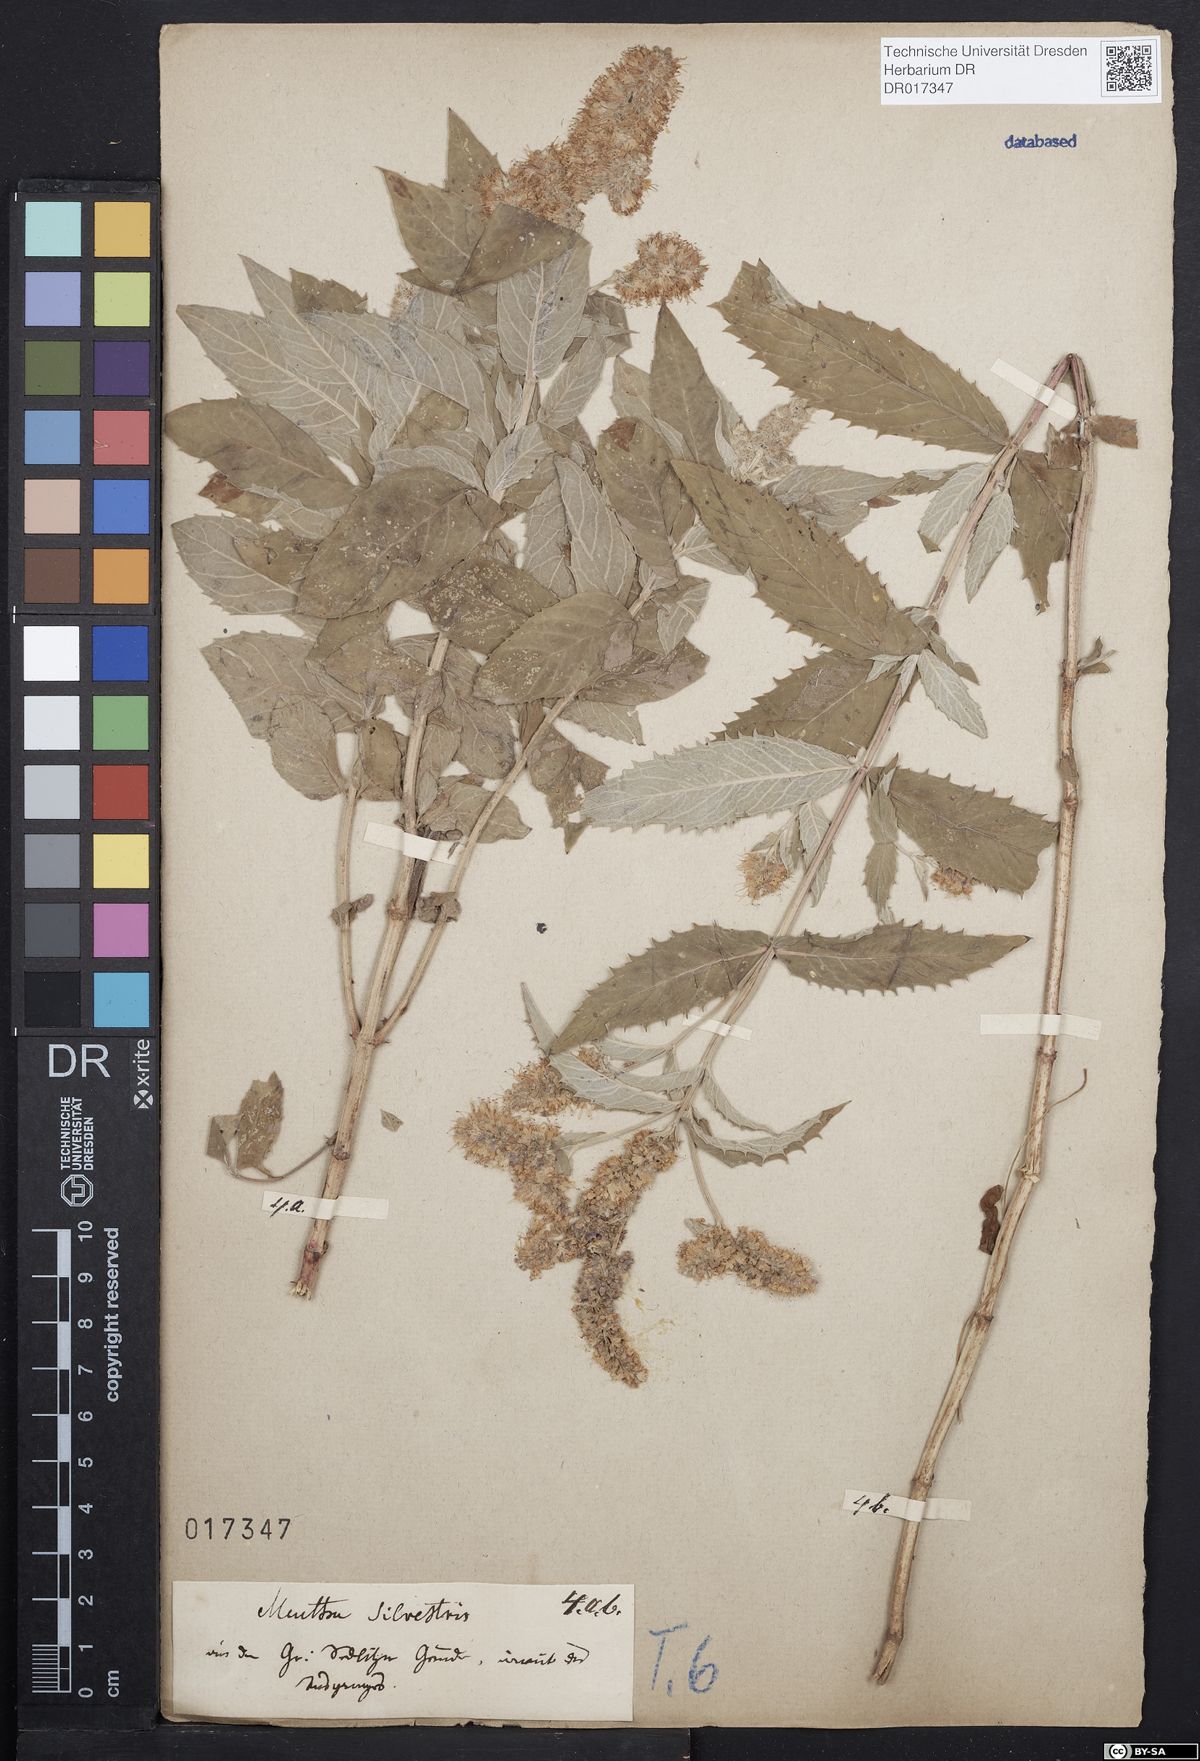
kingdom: Plantae
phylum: Tracheophyta
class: Magnoliopsida
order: Lamiales
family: Lamiaceae
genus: Mentha
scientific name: Mentha longifolia
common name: Horse mint
